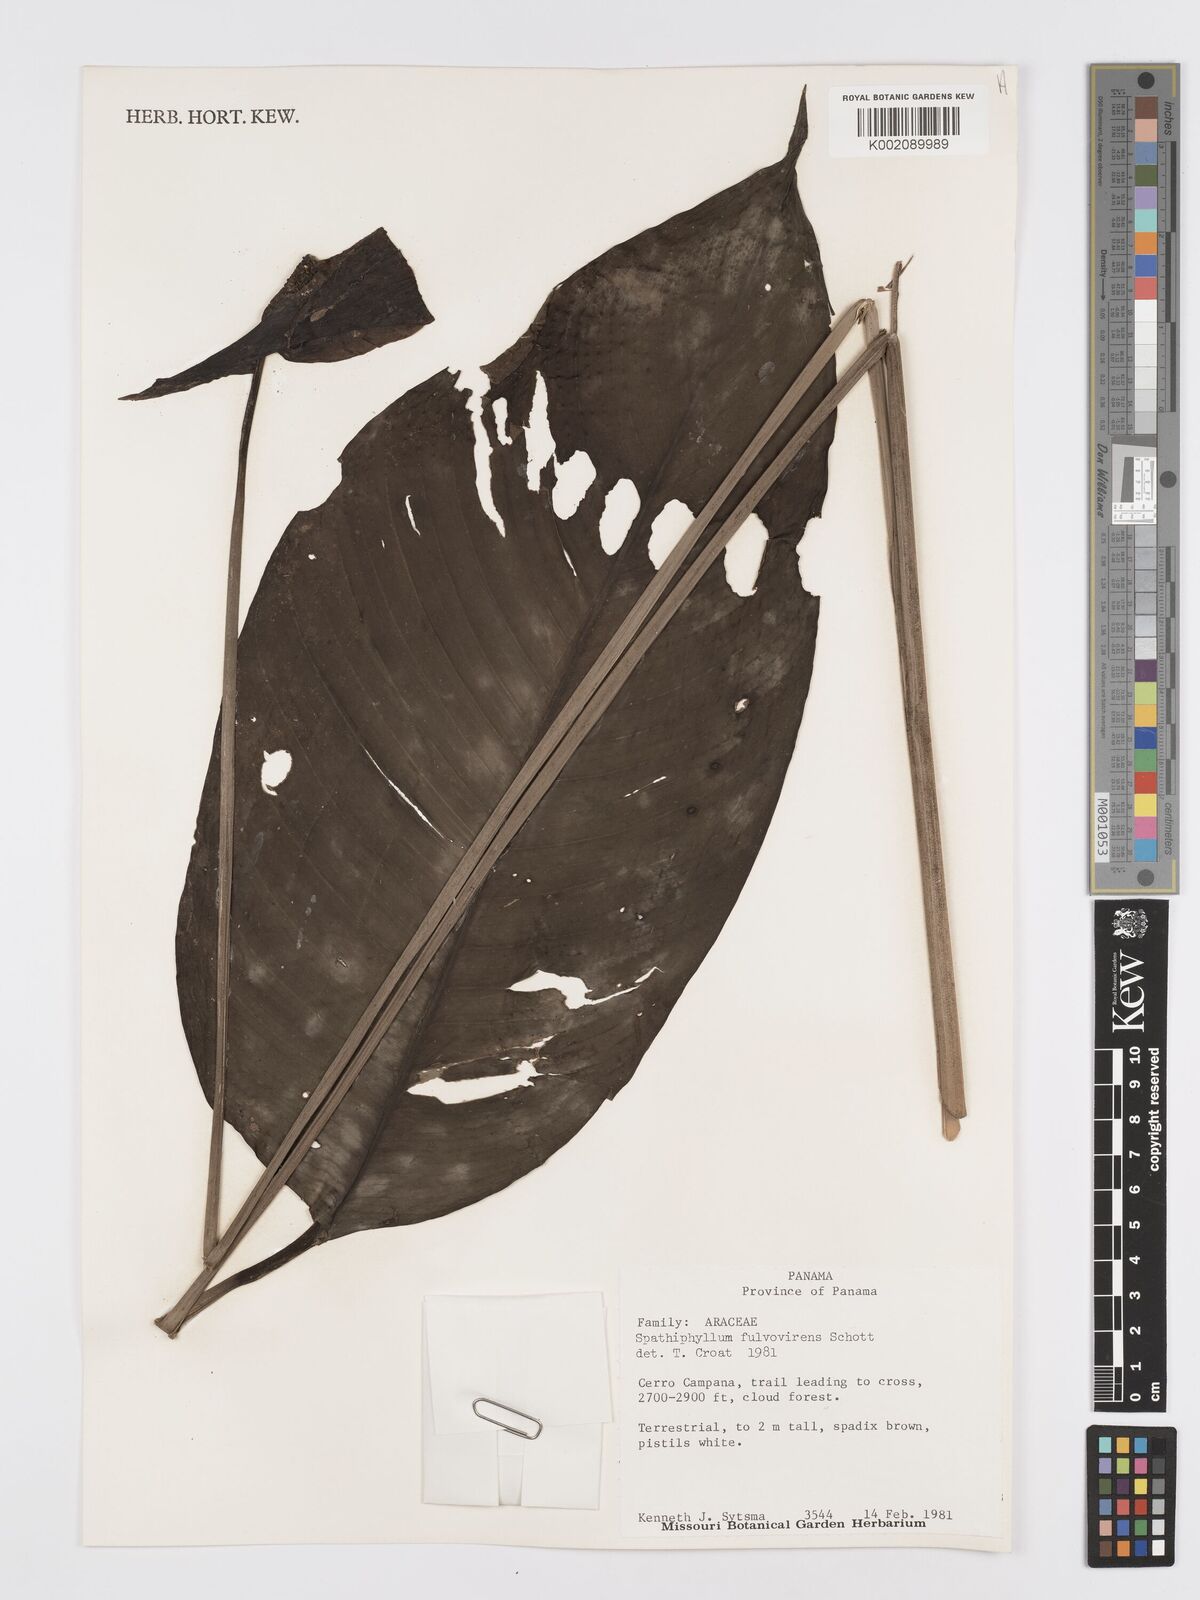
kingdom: Plantae
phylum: Tracheophyta
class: Liliopsida
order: Alismatales
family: Araceae
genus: Spathiphyllum
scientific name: Spathiphyllum fulvovirens
